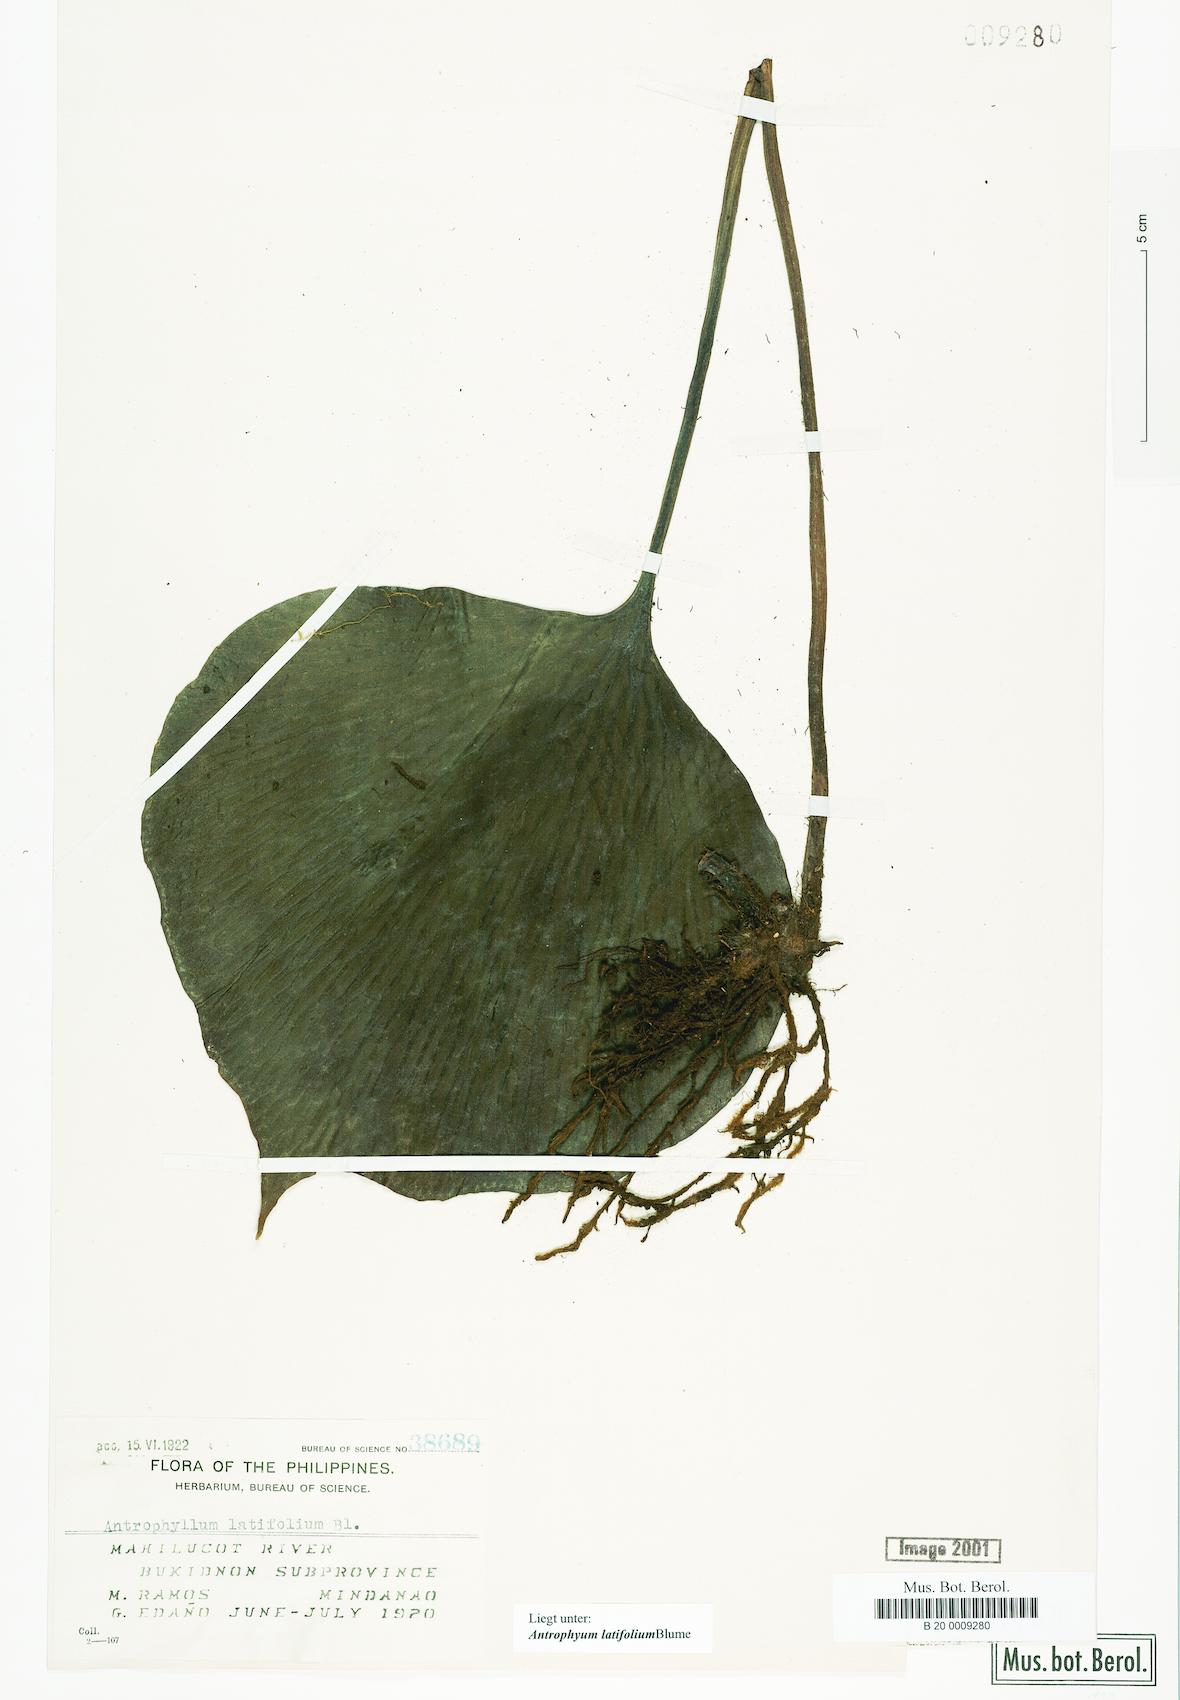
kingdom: Plantae
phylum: Tracheophyta
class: Polypodiopsida
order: Polypodiales
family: Pteridaceae
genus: Antrophyum
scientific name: Antrophyum latifolium
